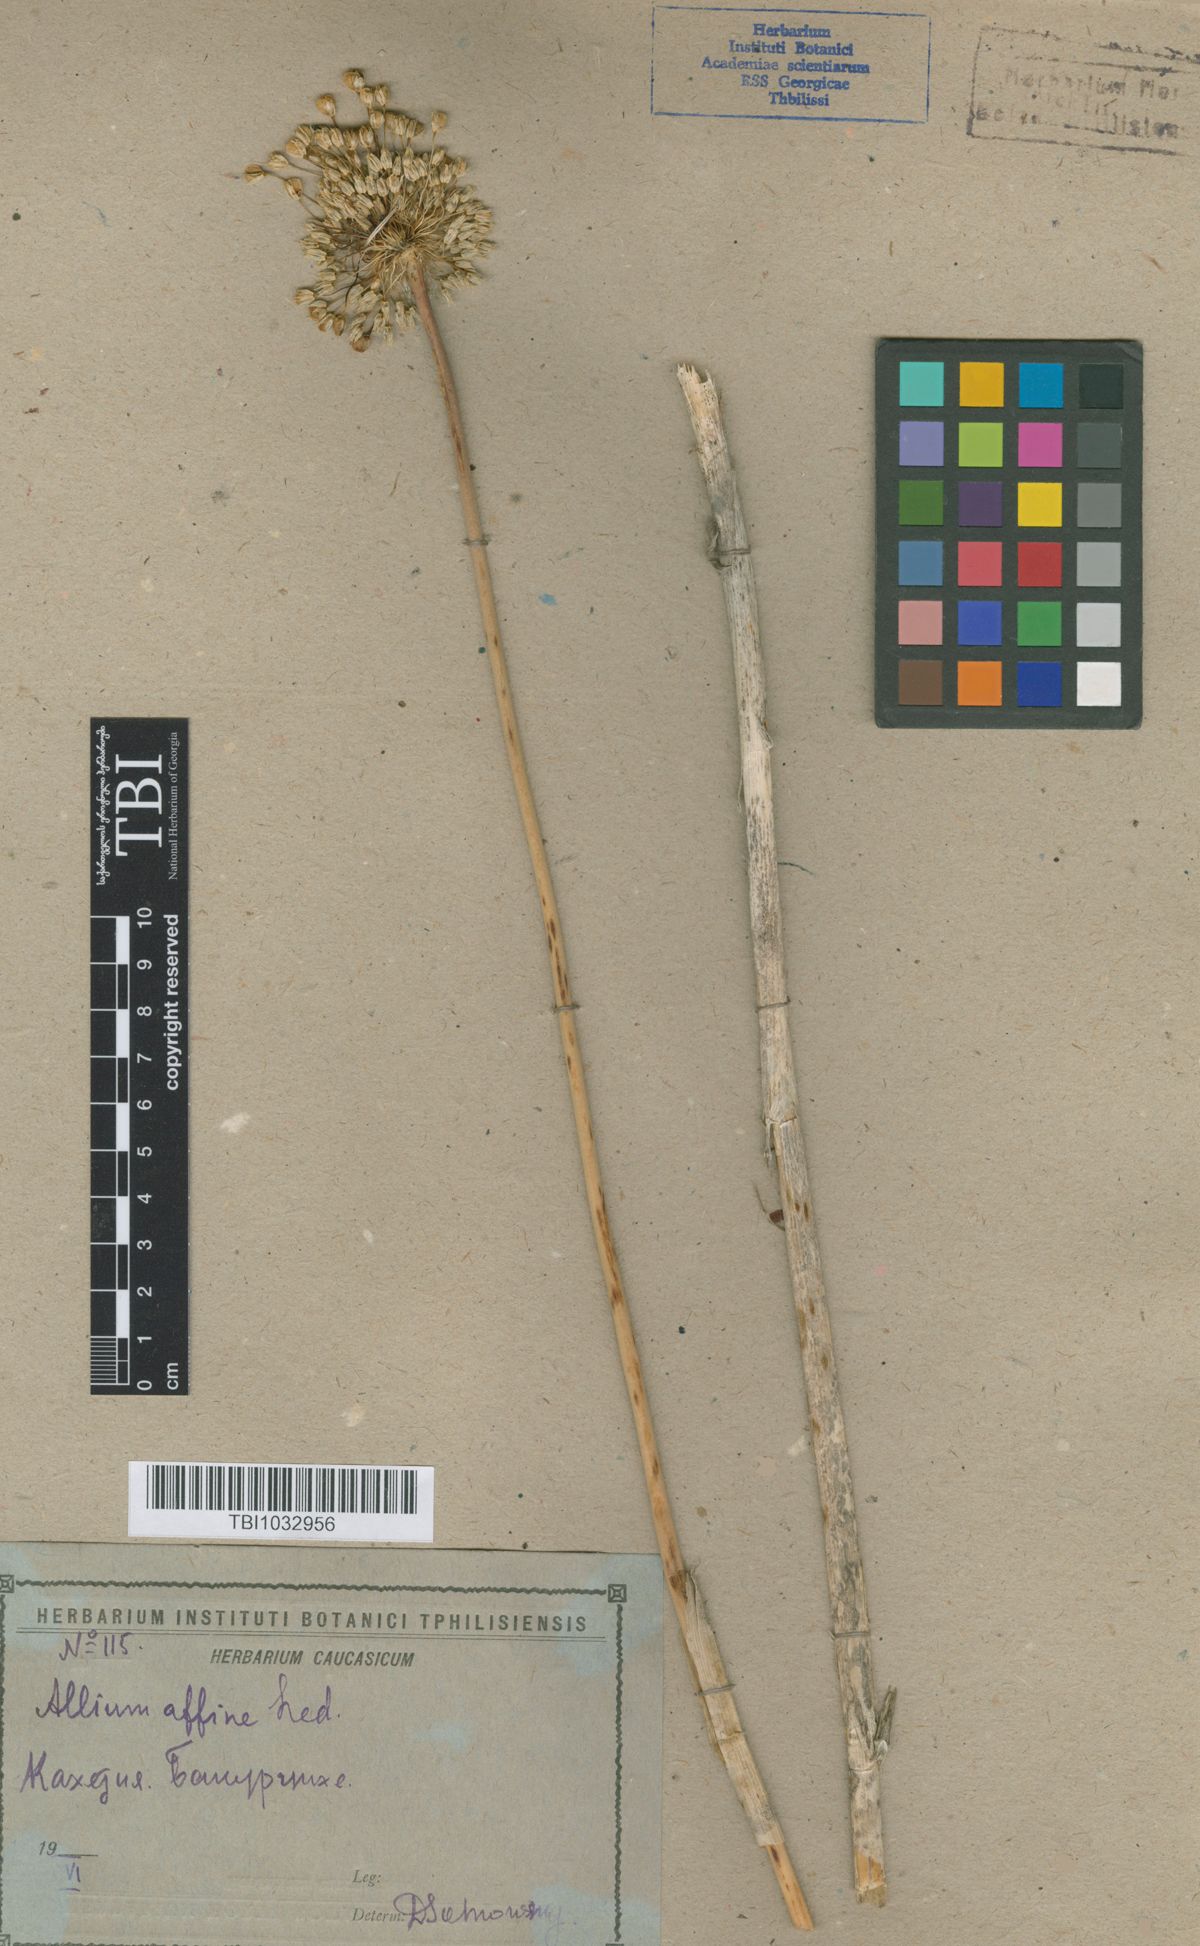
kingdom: Plantae
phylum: Tracheophyta
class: Liliopsida
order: Asparagales
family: Amaryllidaceae
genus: Allium
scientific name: Allium affine
